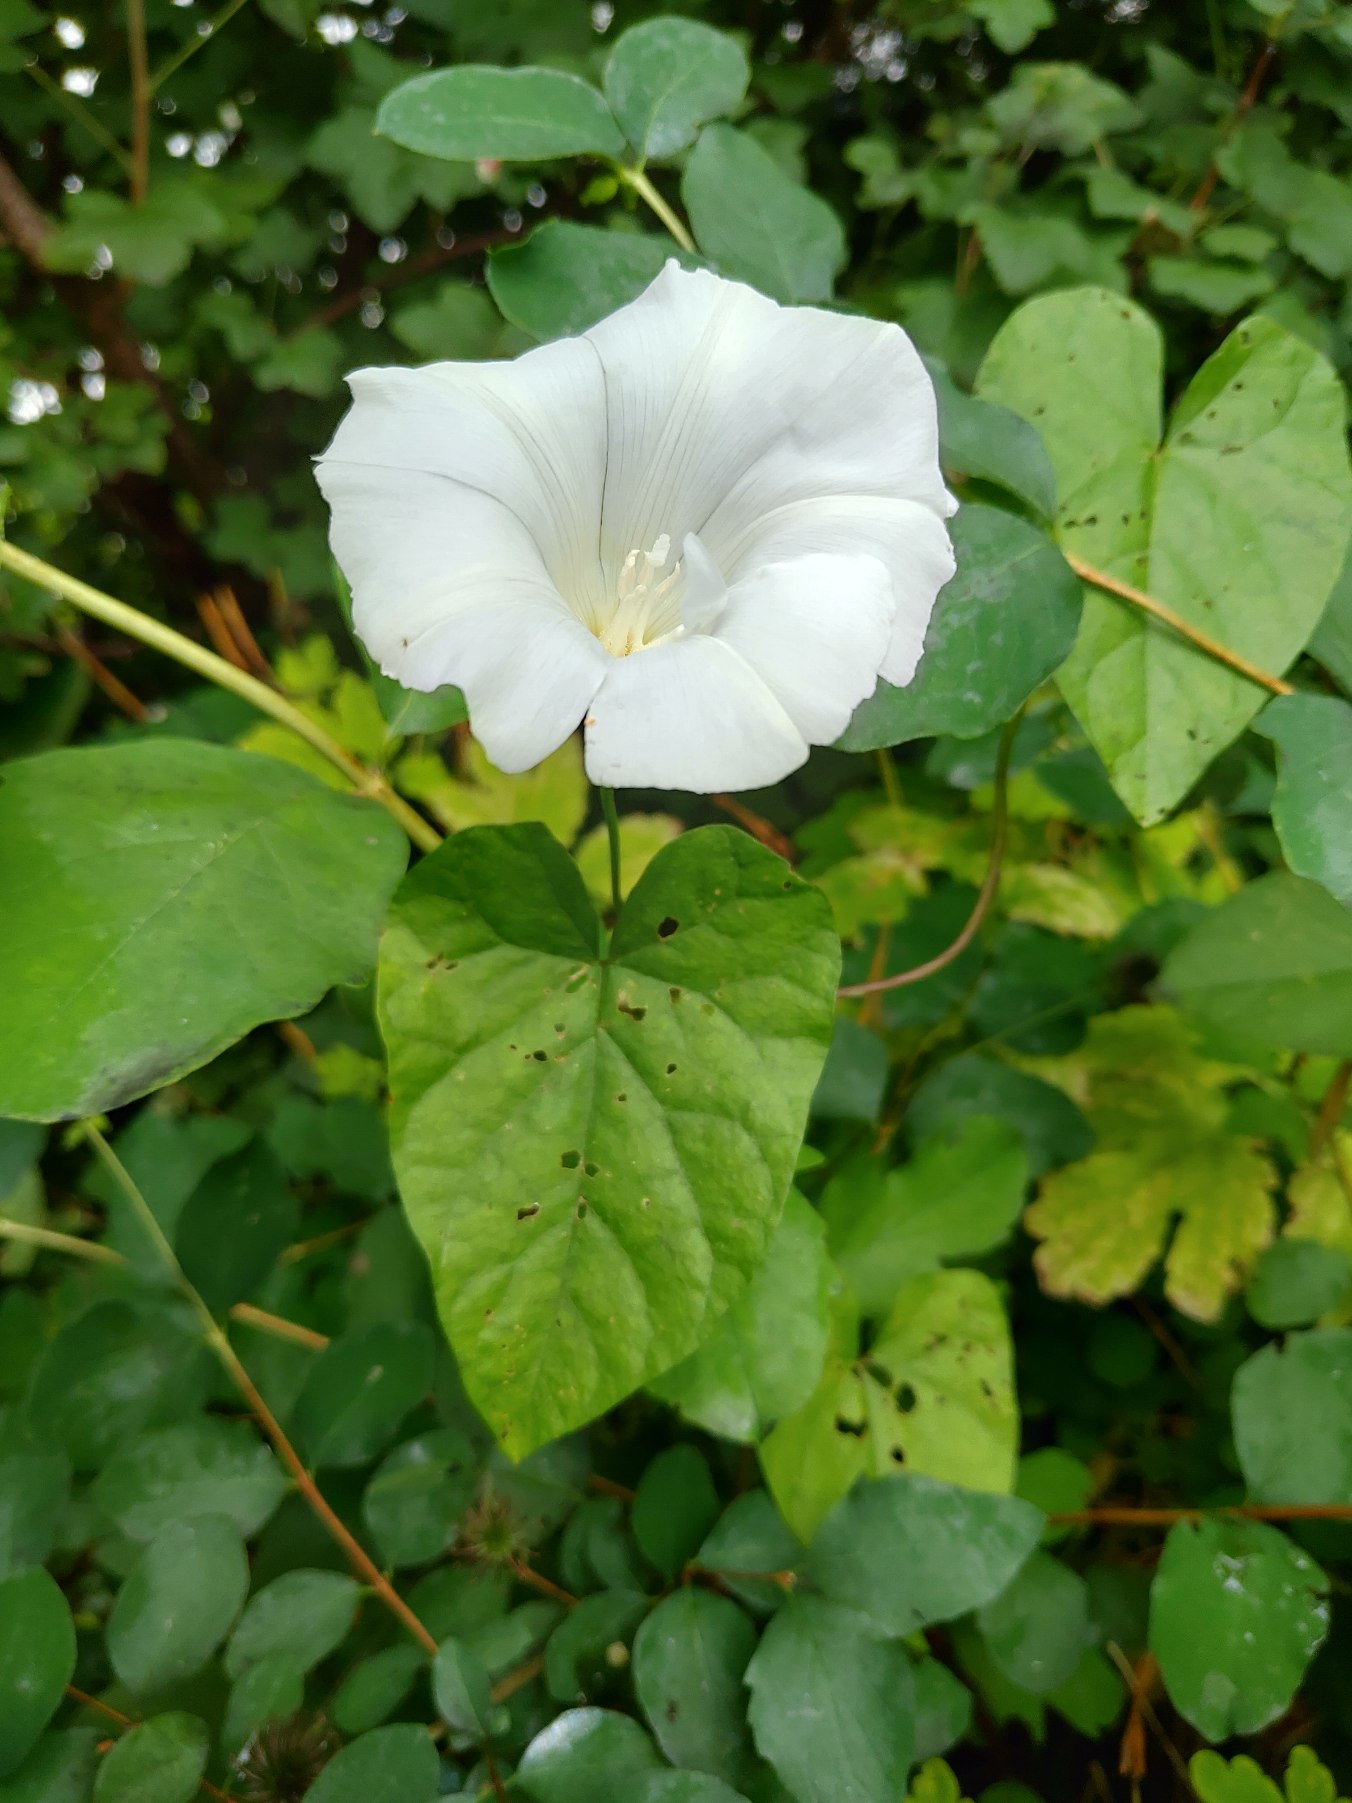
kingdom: Plantae
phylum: Tracheophyta
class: Magnoliopsida
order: Solanales
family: Convolvulaceae
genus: Calystegia
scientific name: Calystegia sepium
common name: Gærde-snerle
